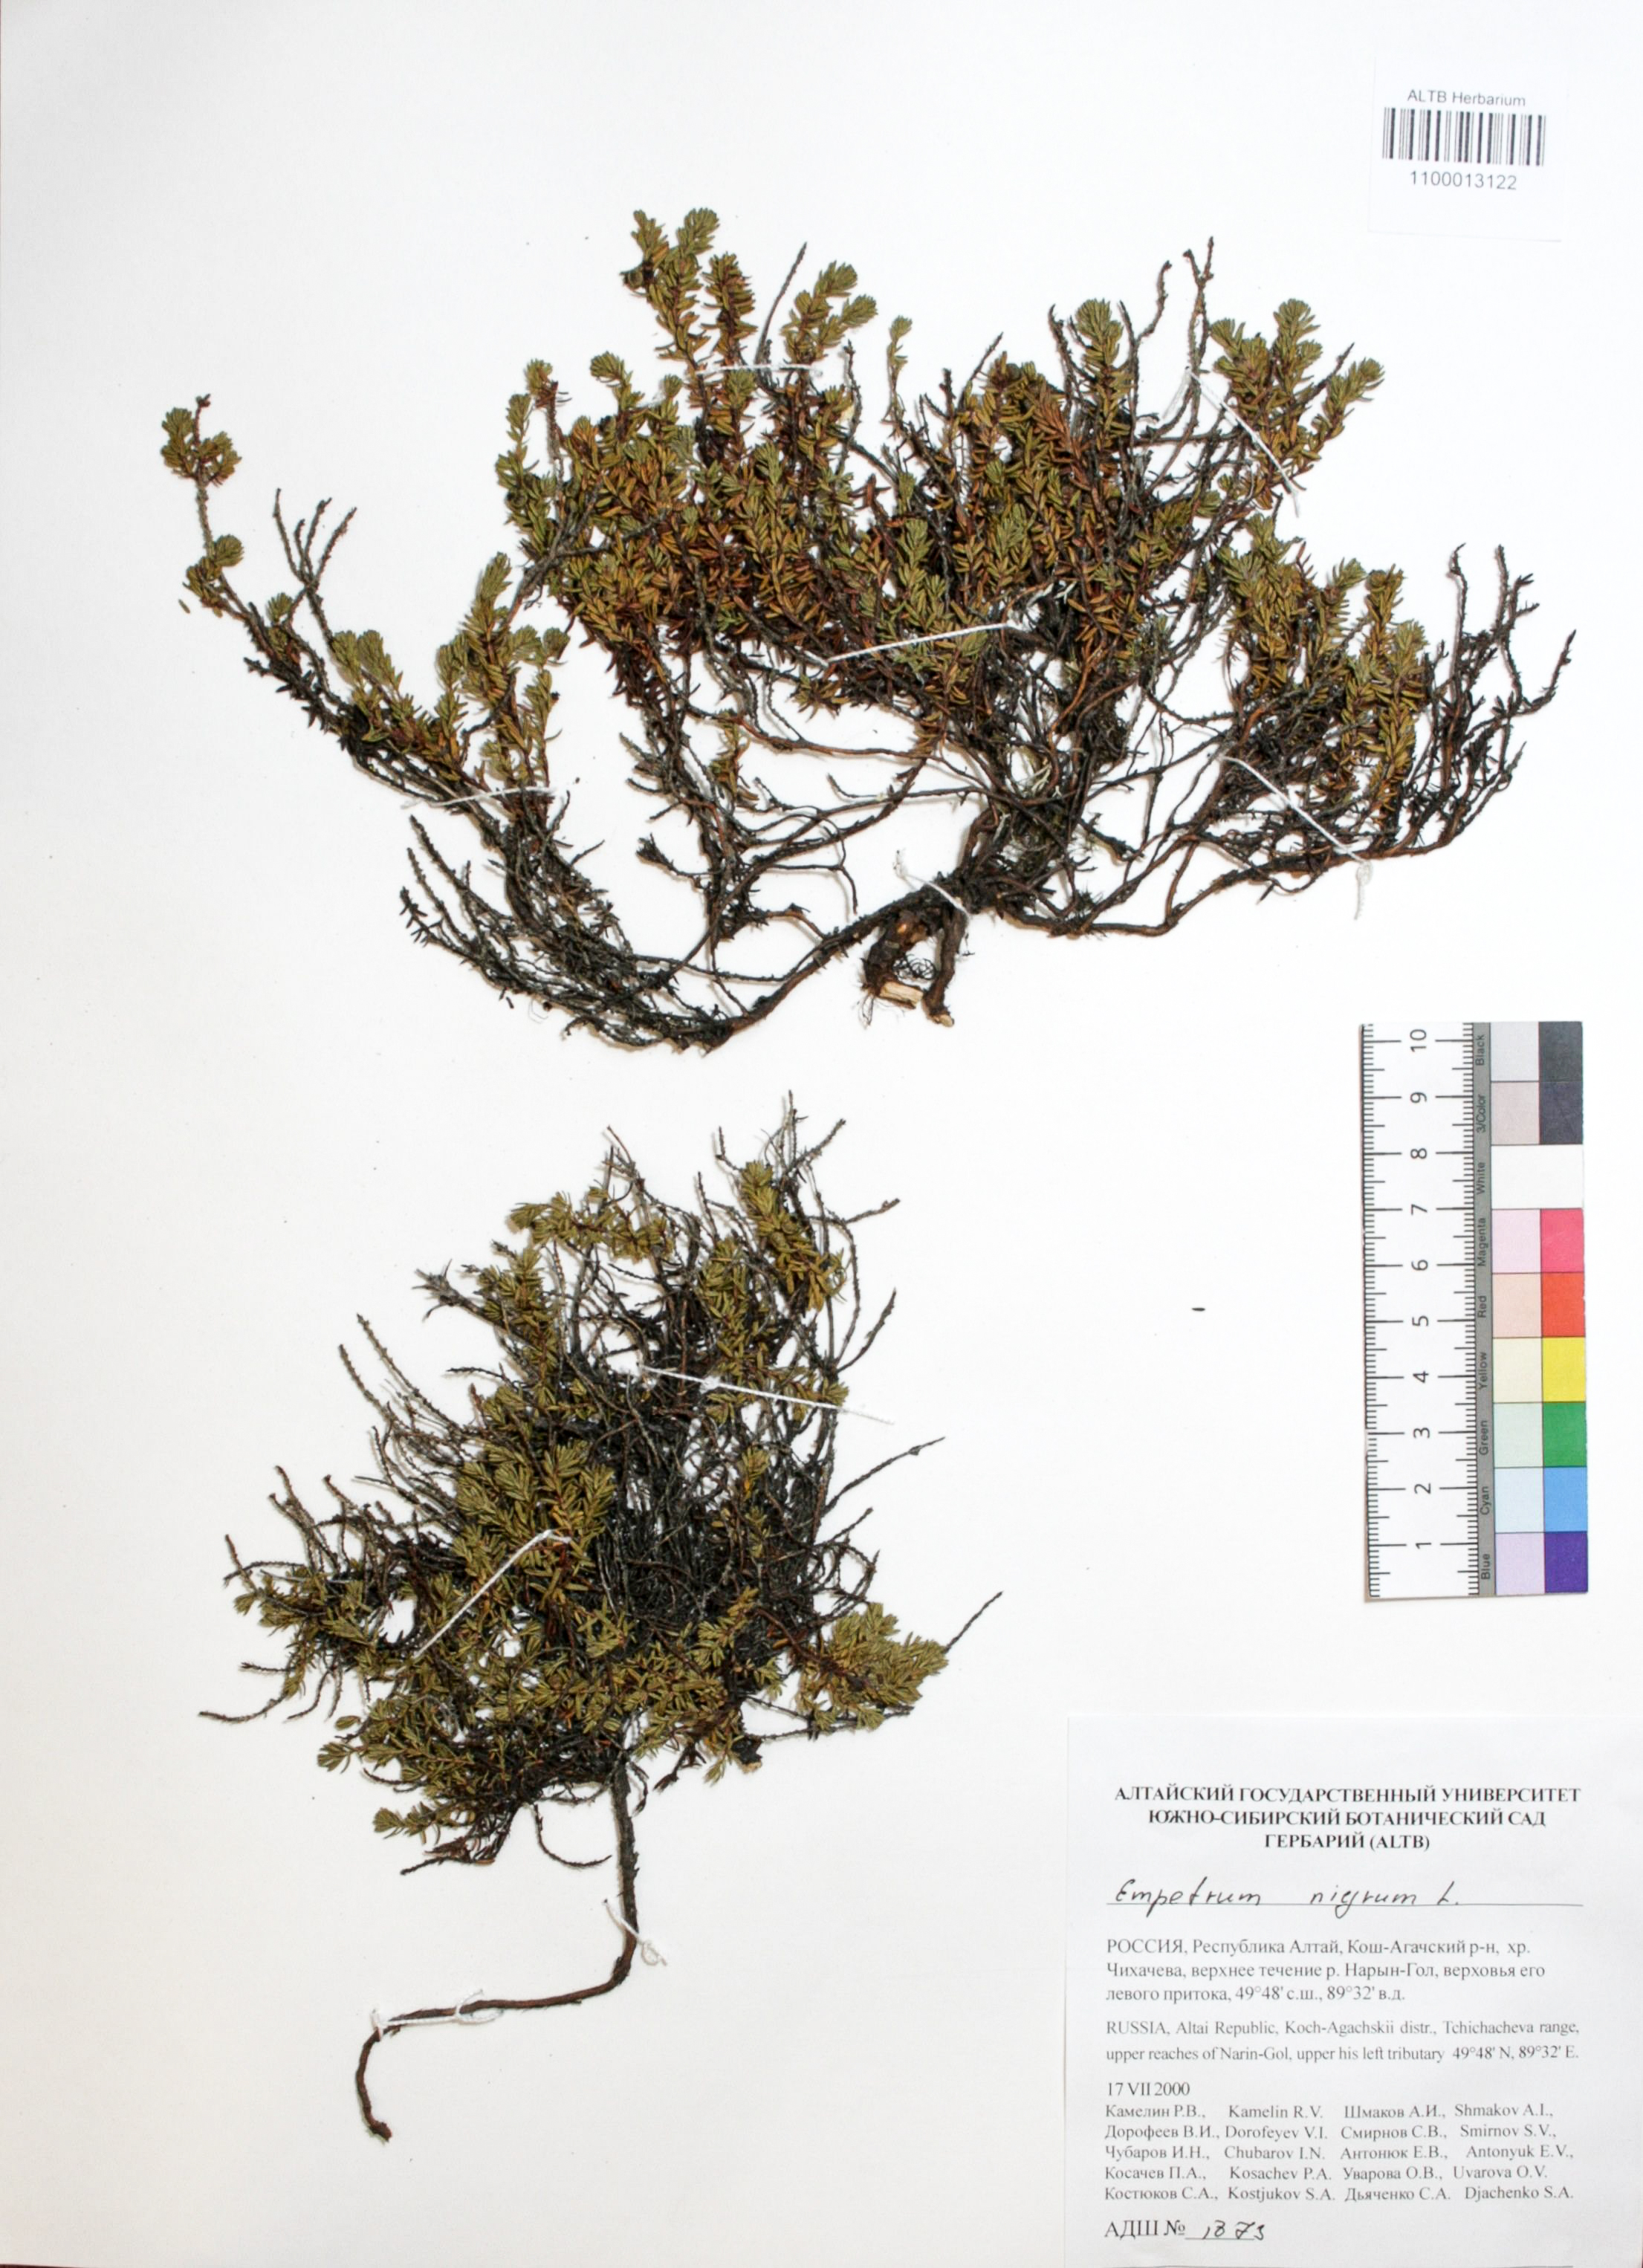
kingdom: Plantae
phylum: Tracheophyta
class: Magnoliopsida
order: Ericales
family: Ericaceae
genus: Empetrum
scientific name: Empetrum nigrum
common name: Black crowberry
